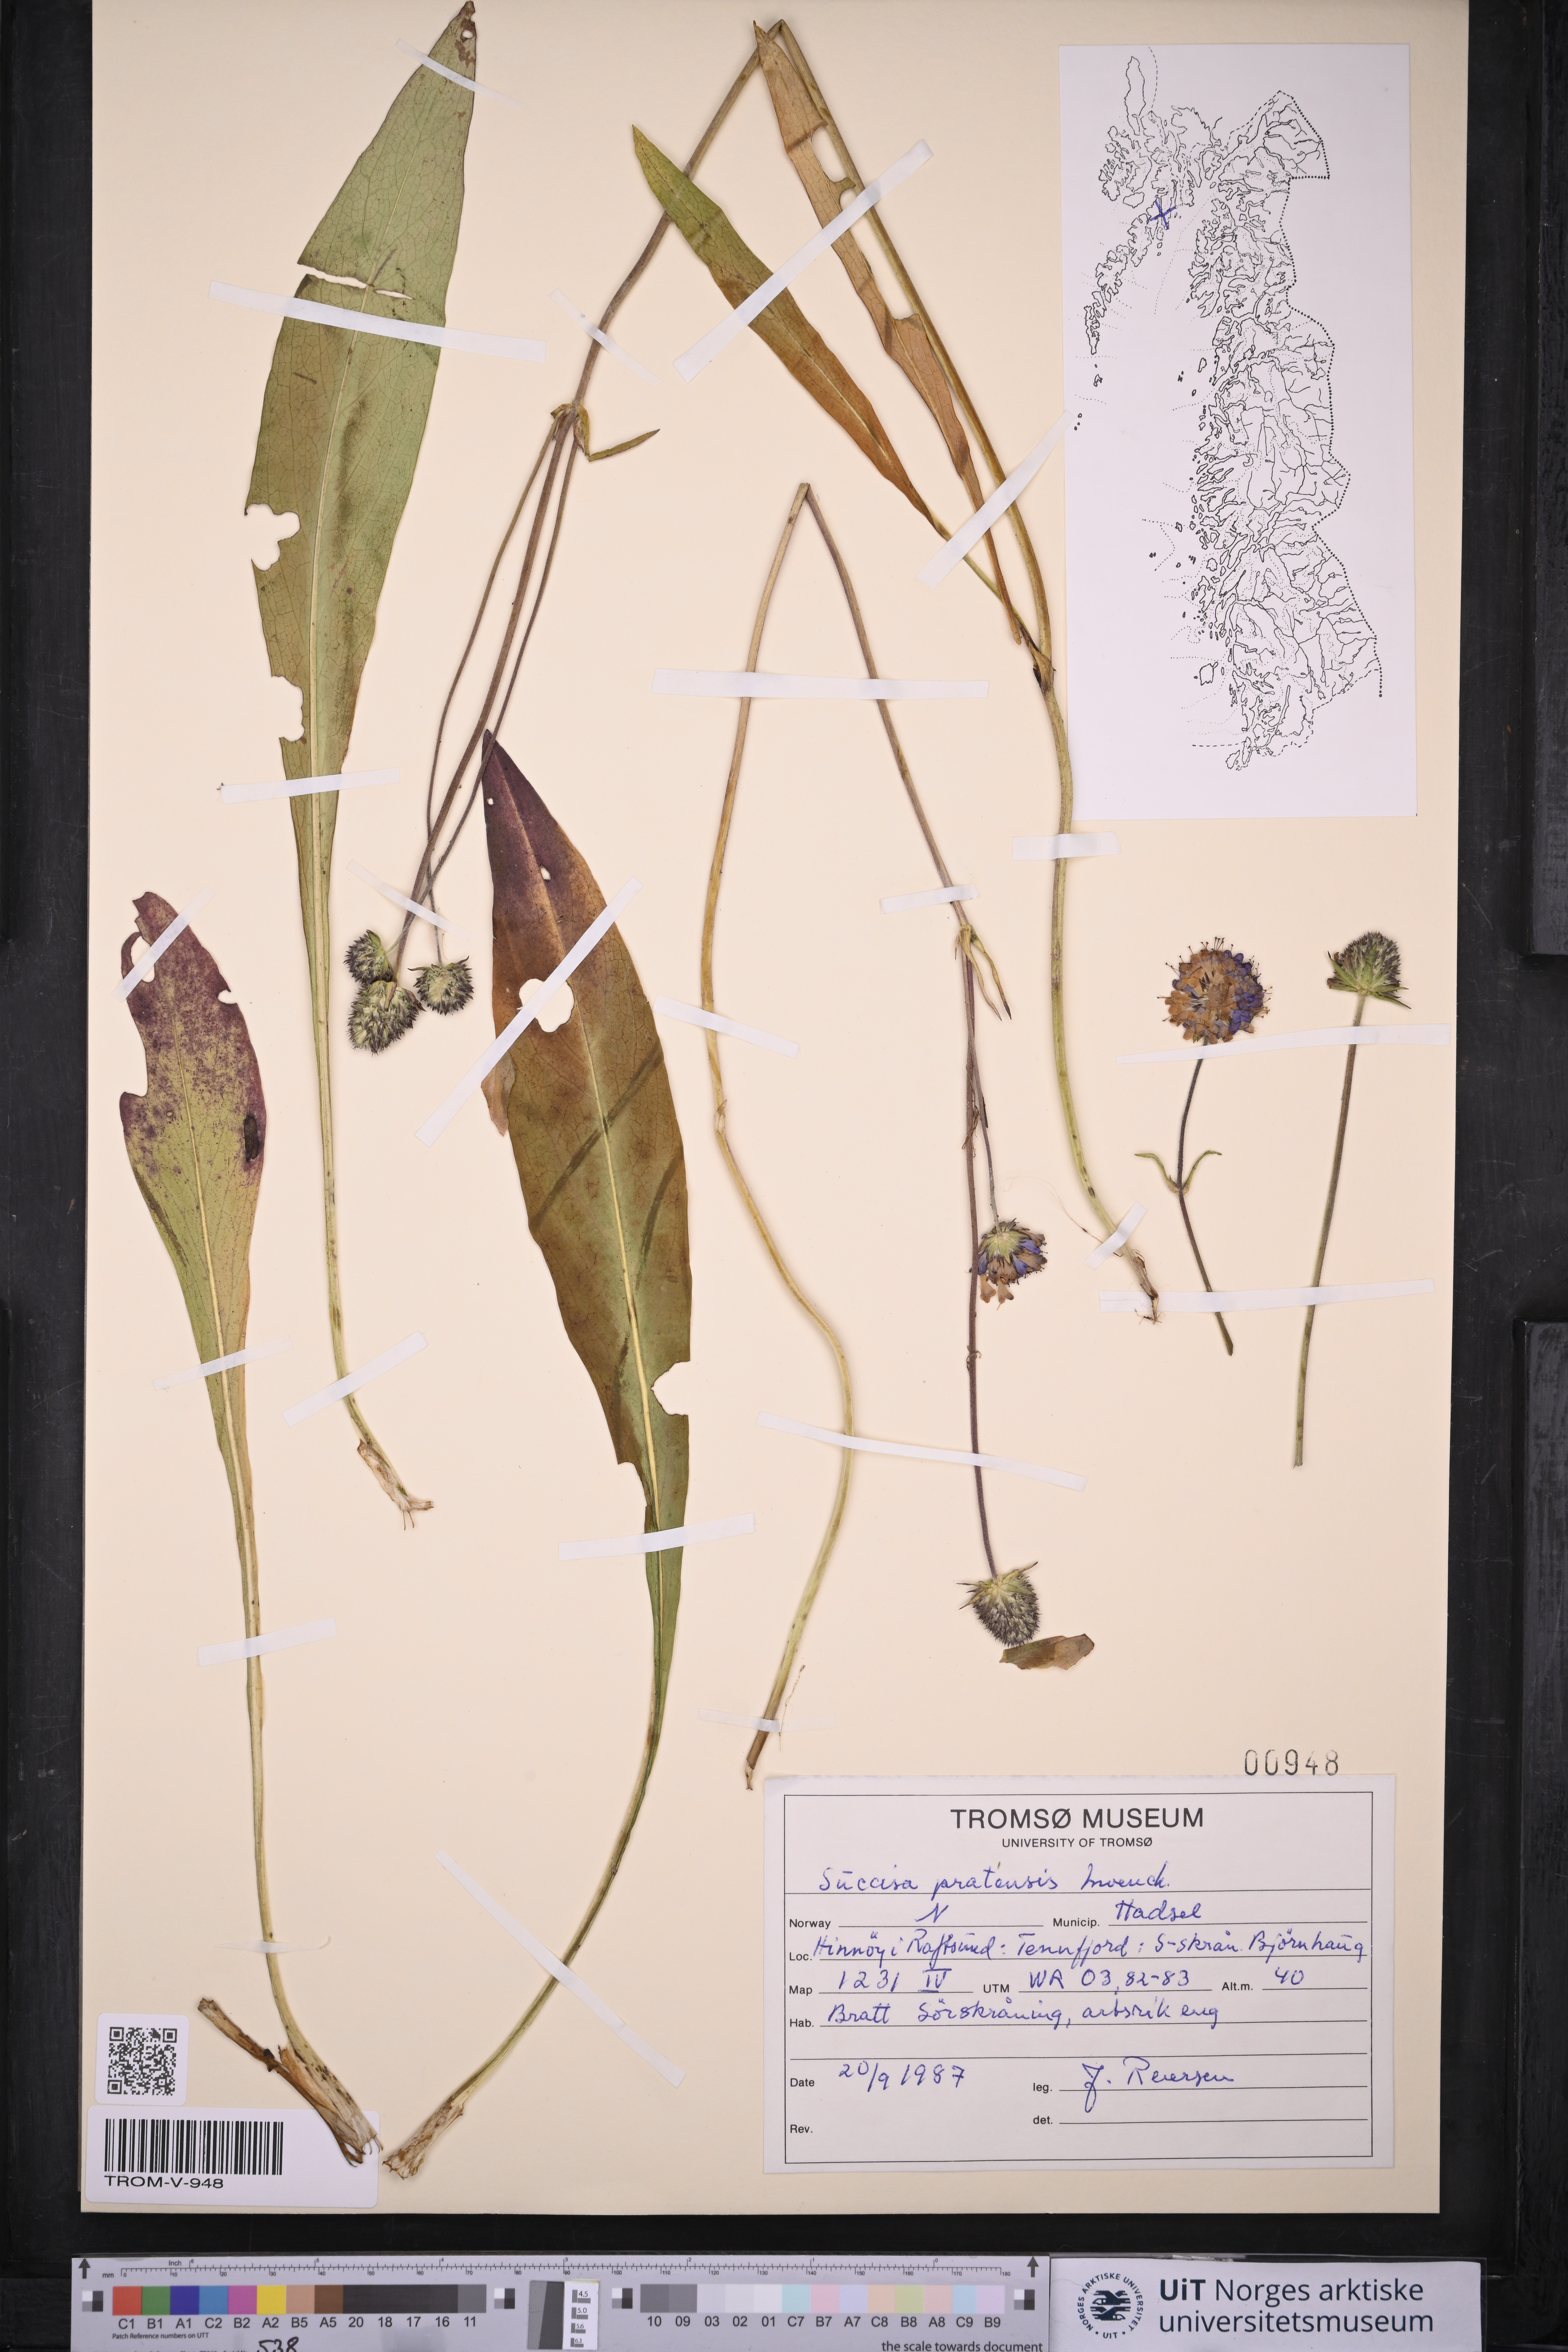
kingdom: Plantae
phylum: Tracheophyta
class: Magnoliopsida
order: Dipsacales
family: Caprifoliaceae
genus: Succisa
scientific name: Succisa pratensis
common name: Devil's-bit
